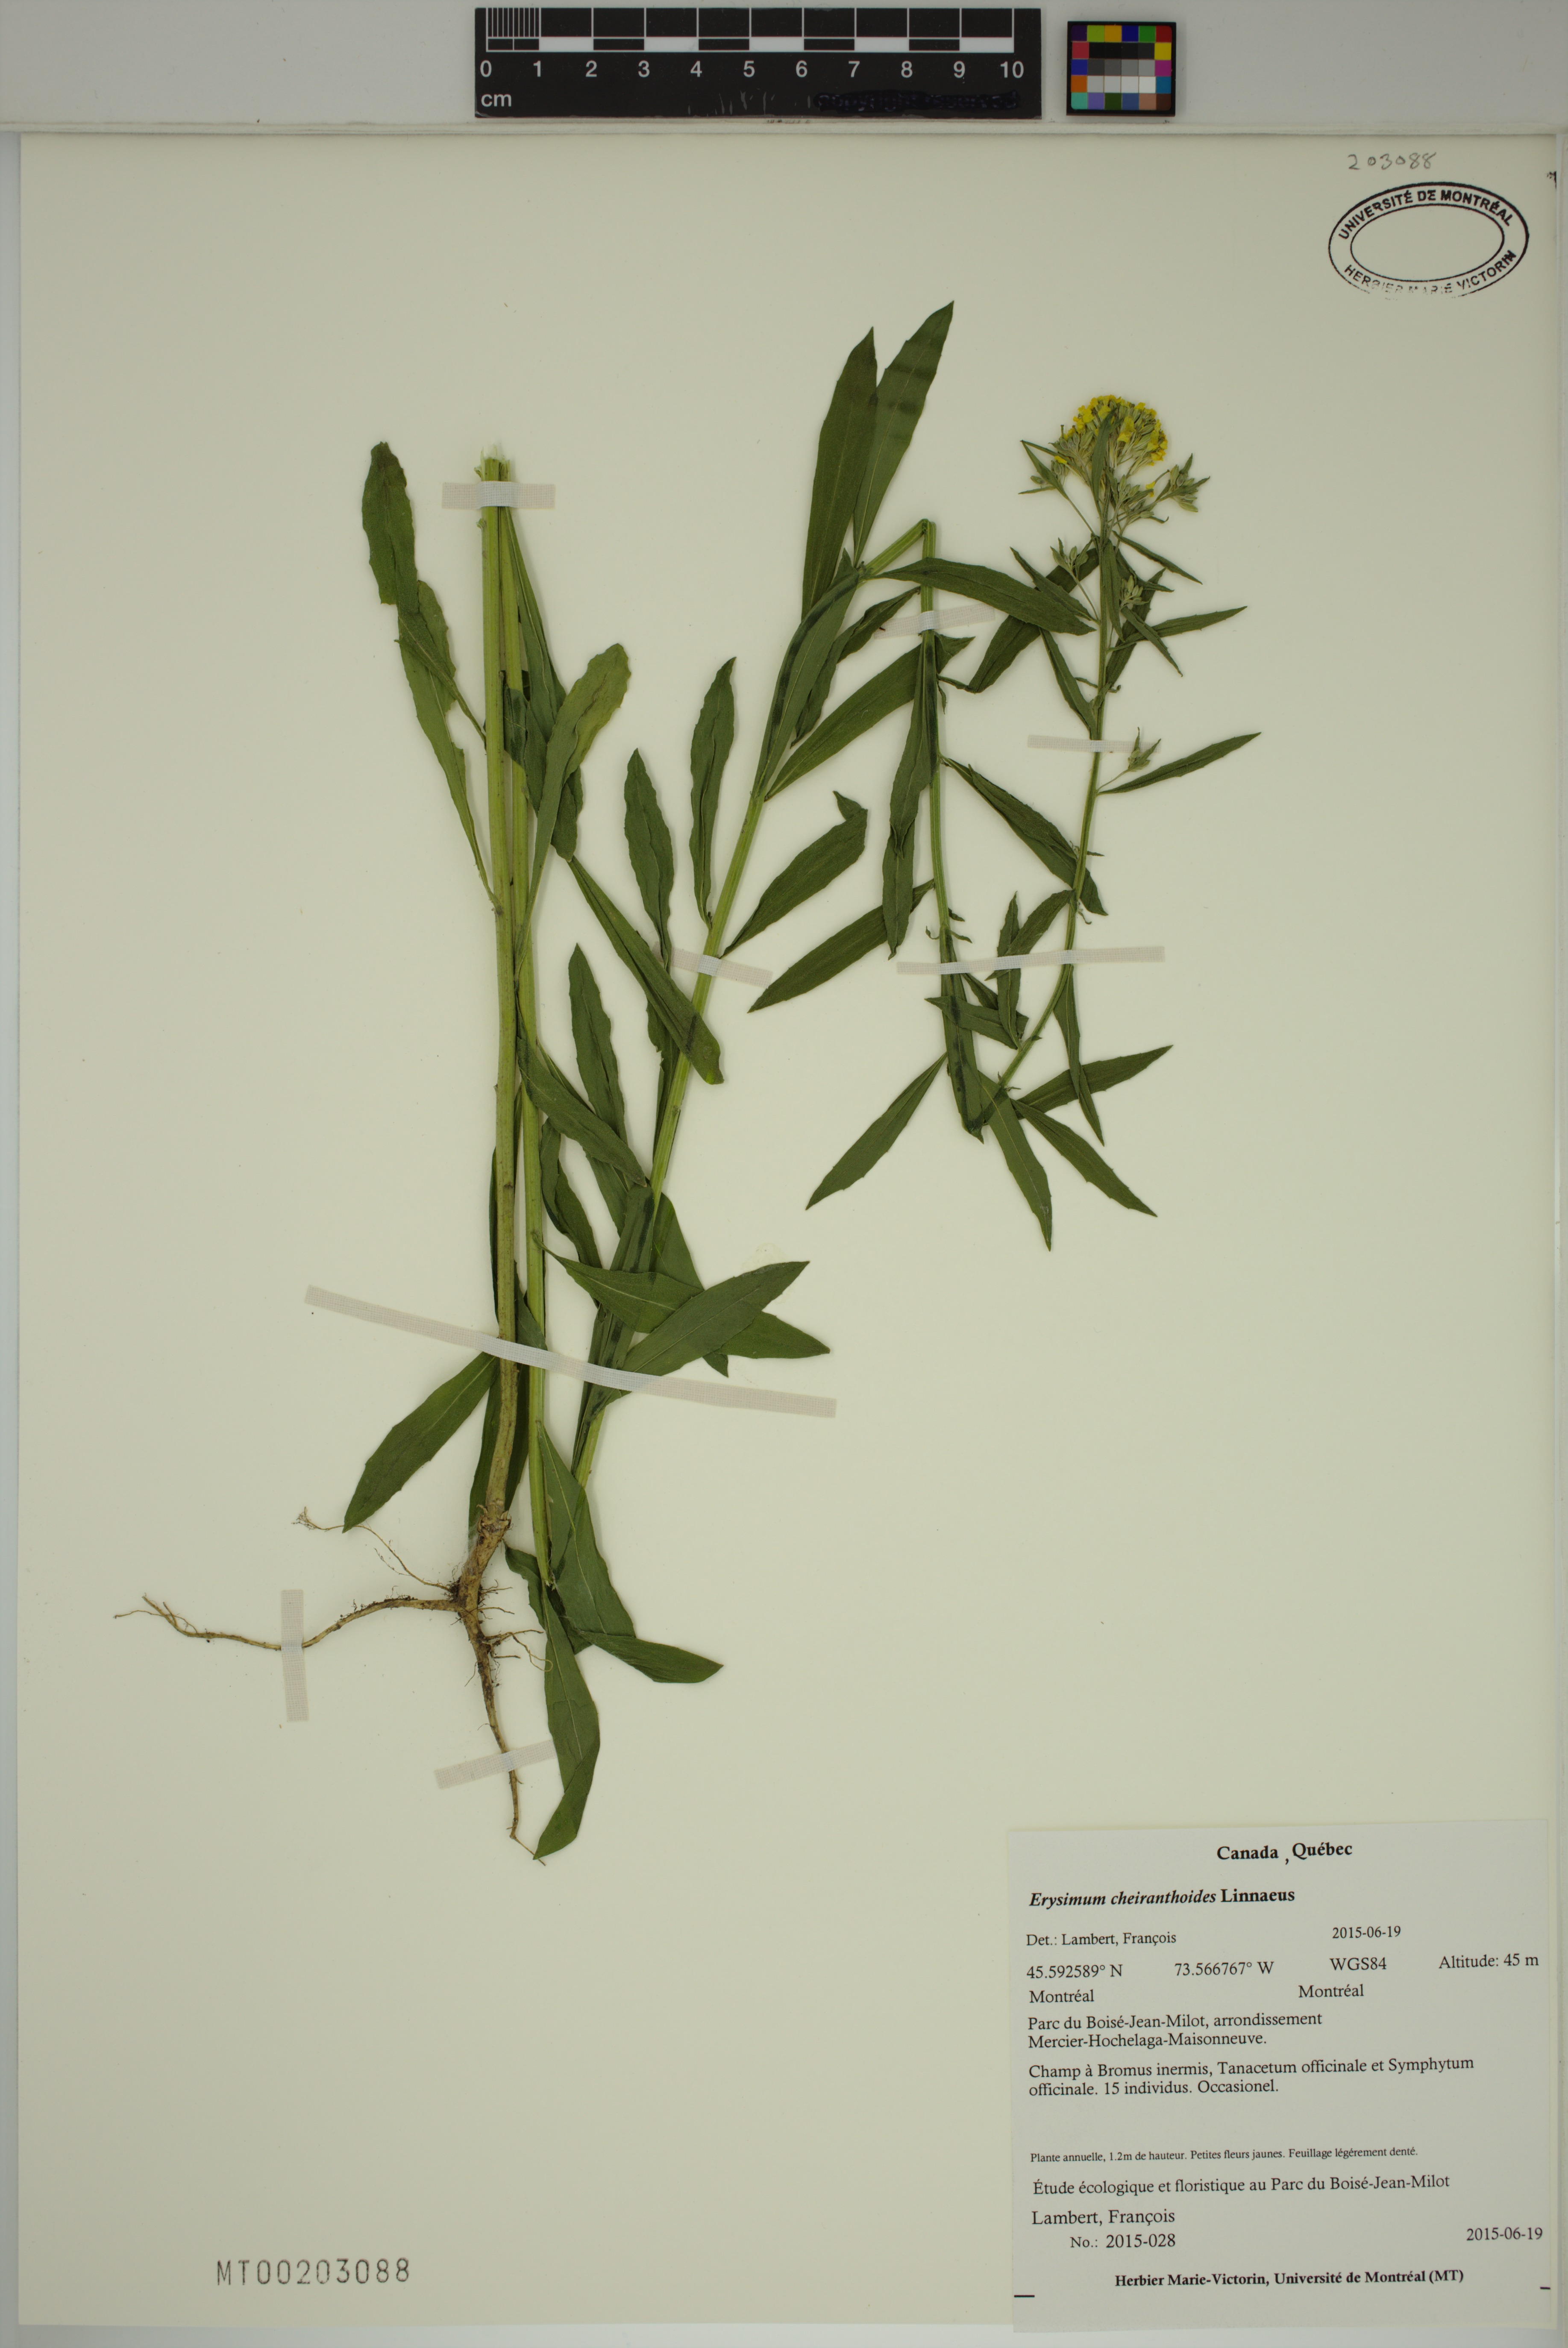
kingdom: Plantae
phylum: Tracheophyta
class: Magnoliopsida
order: Brassicales
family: Brassicaceae
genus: Erysimum
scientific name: Erysimum cheiranthoides
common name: Treacle mustard
